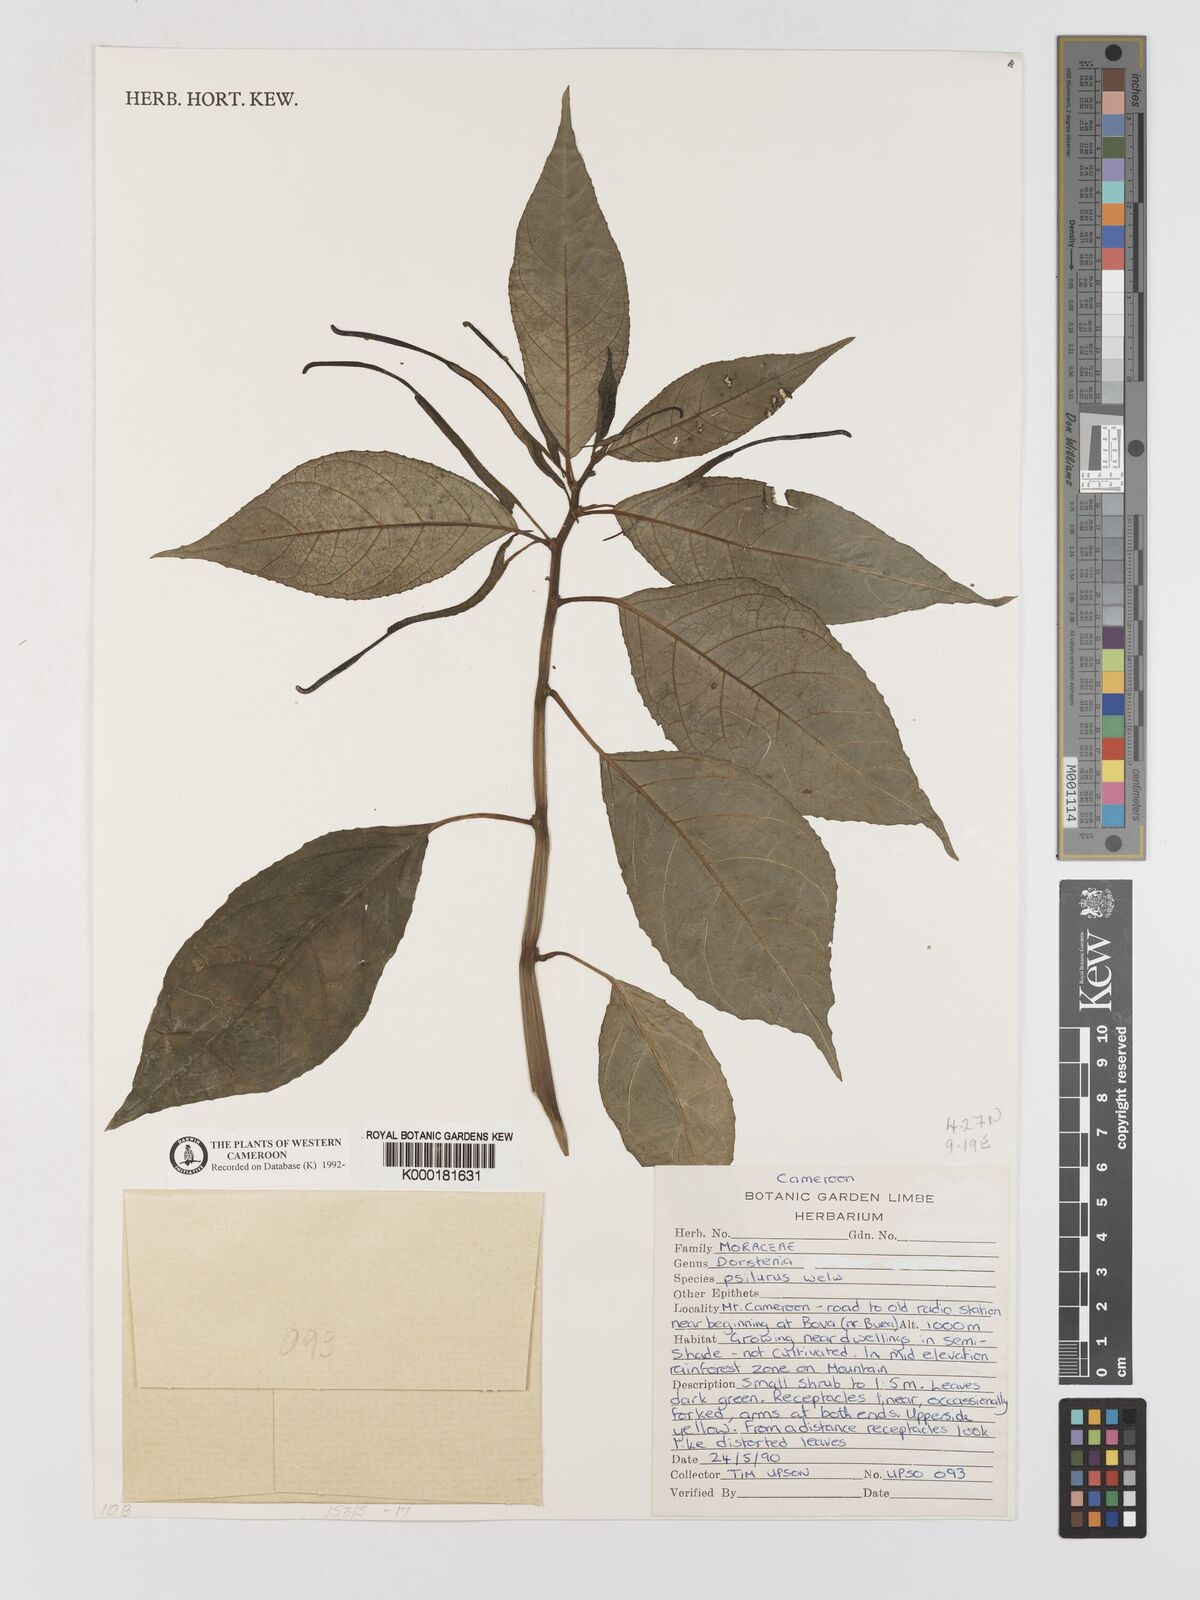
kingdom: Plantae
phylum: Tracheophyta
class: Magnoliopsida
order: Rosales
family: Moraceae
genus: Dorstenia
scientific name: Dorstenia psilurus
